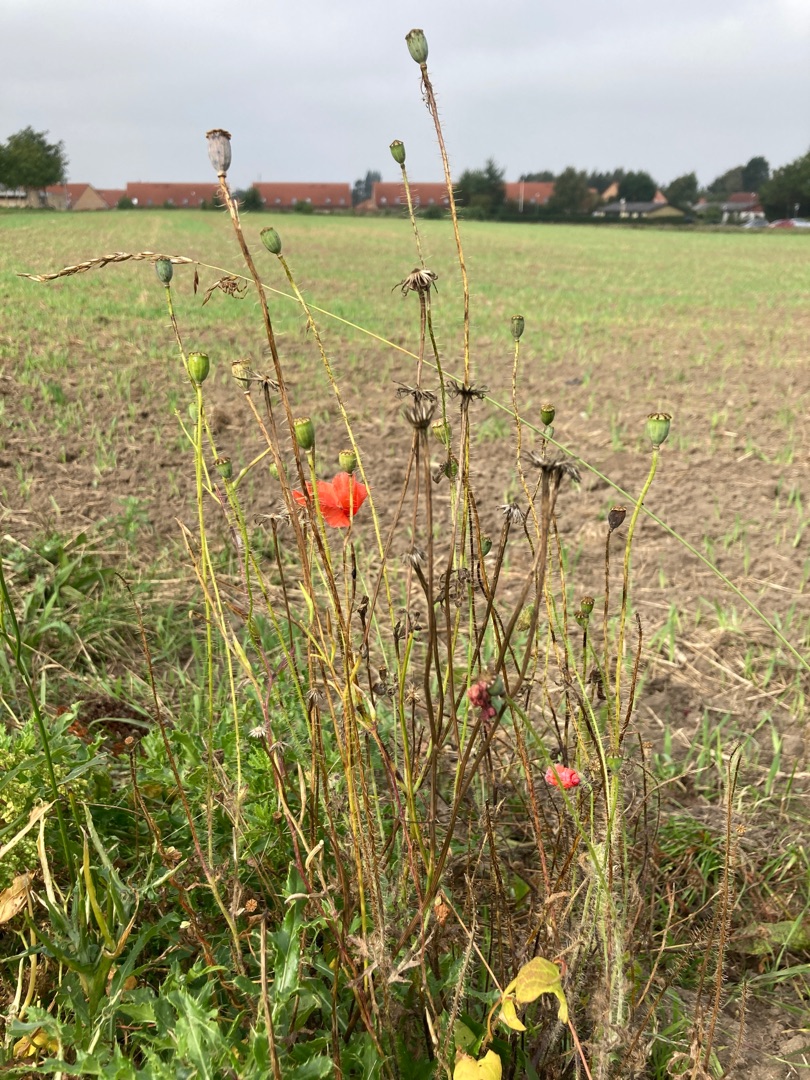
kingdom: Plantae
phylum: Tracheophyta
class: Magnoliopsida
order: Ranunculales
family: Papaveraceae
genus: Papaver
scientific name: Papaver rhoeas
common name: Korn-valmue
